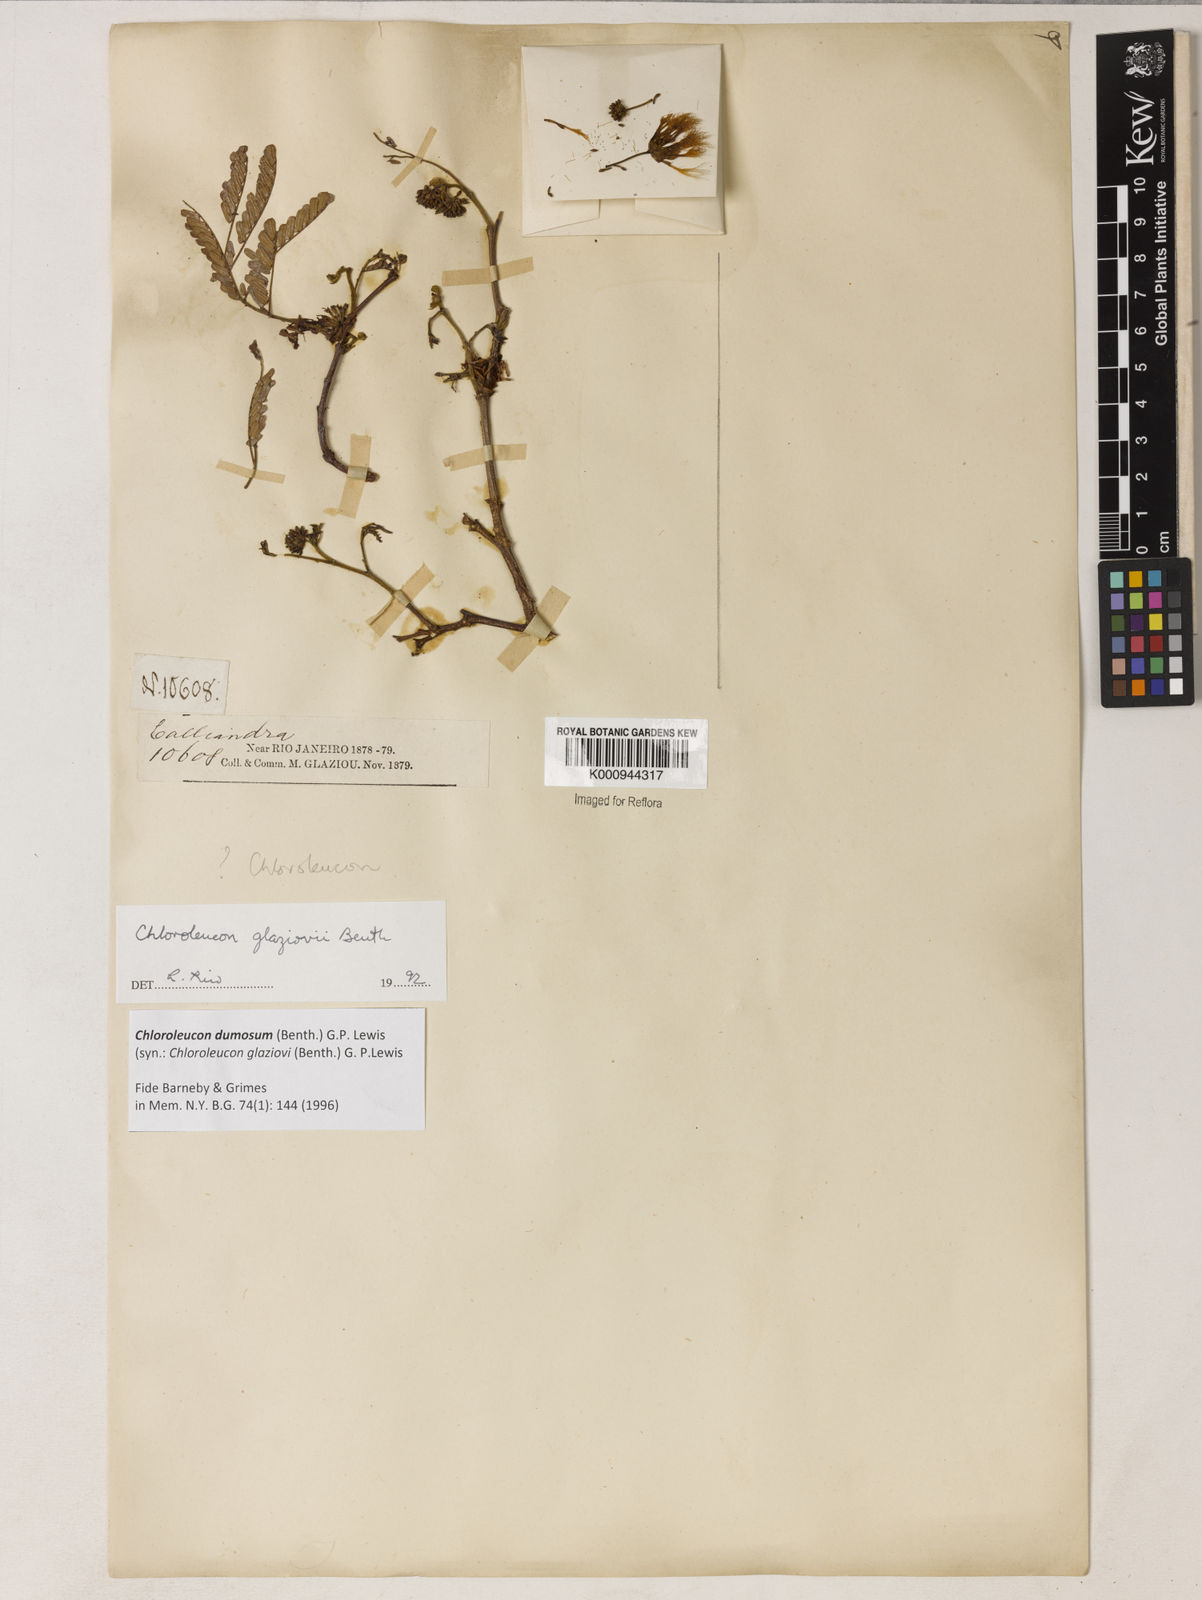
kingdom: Plantae
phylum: Tracheophyta
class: Magnoliopsida
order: Fabales
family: Fabaceae
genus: Inga
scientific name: Inga stenoptera
